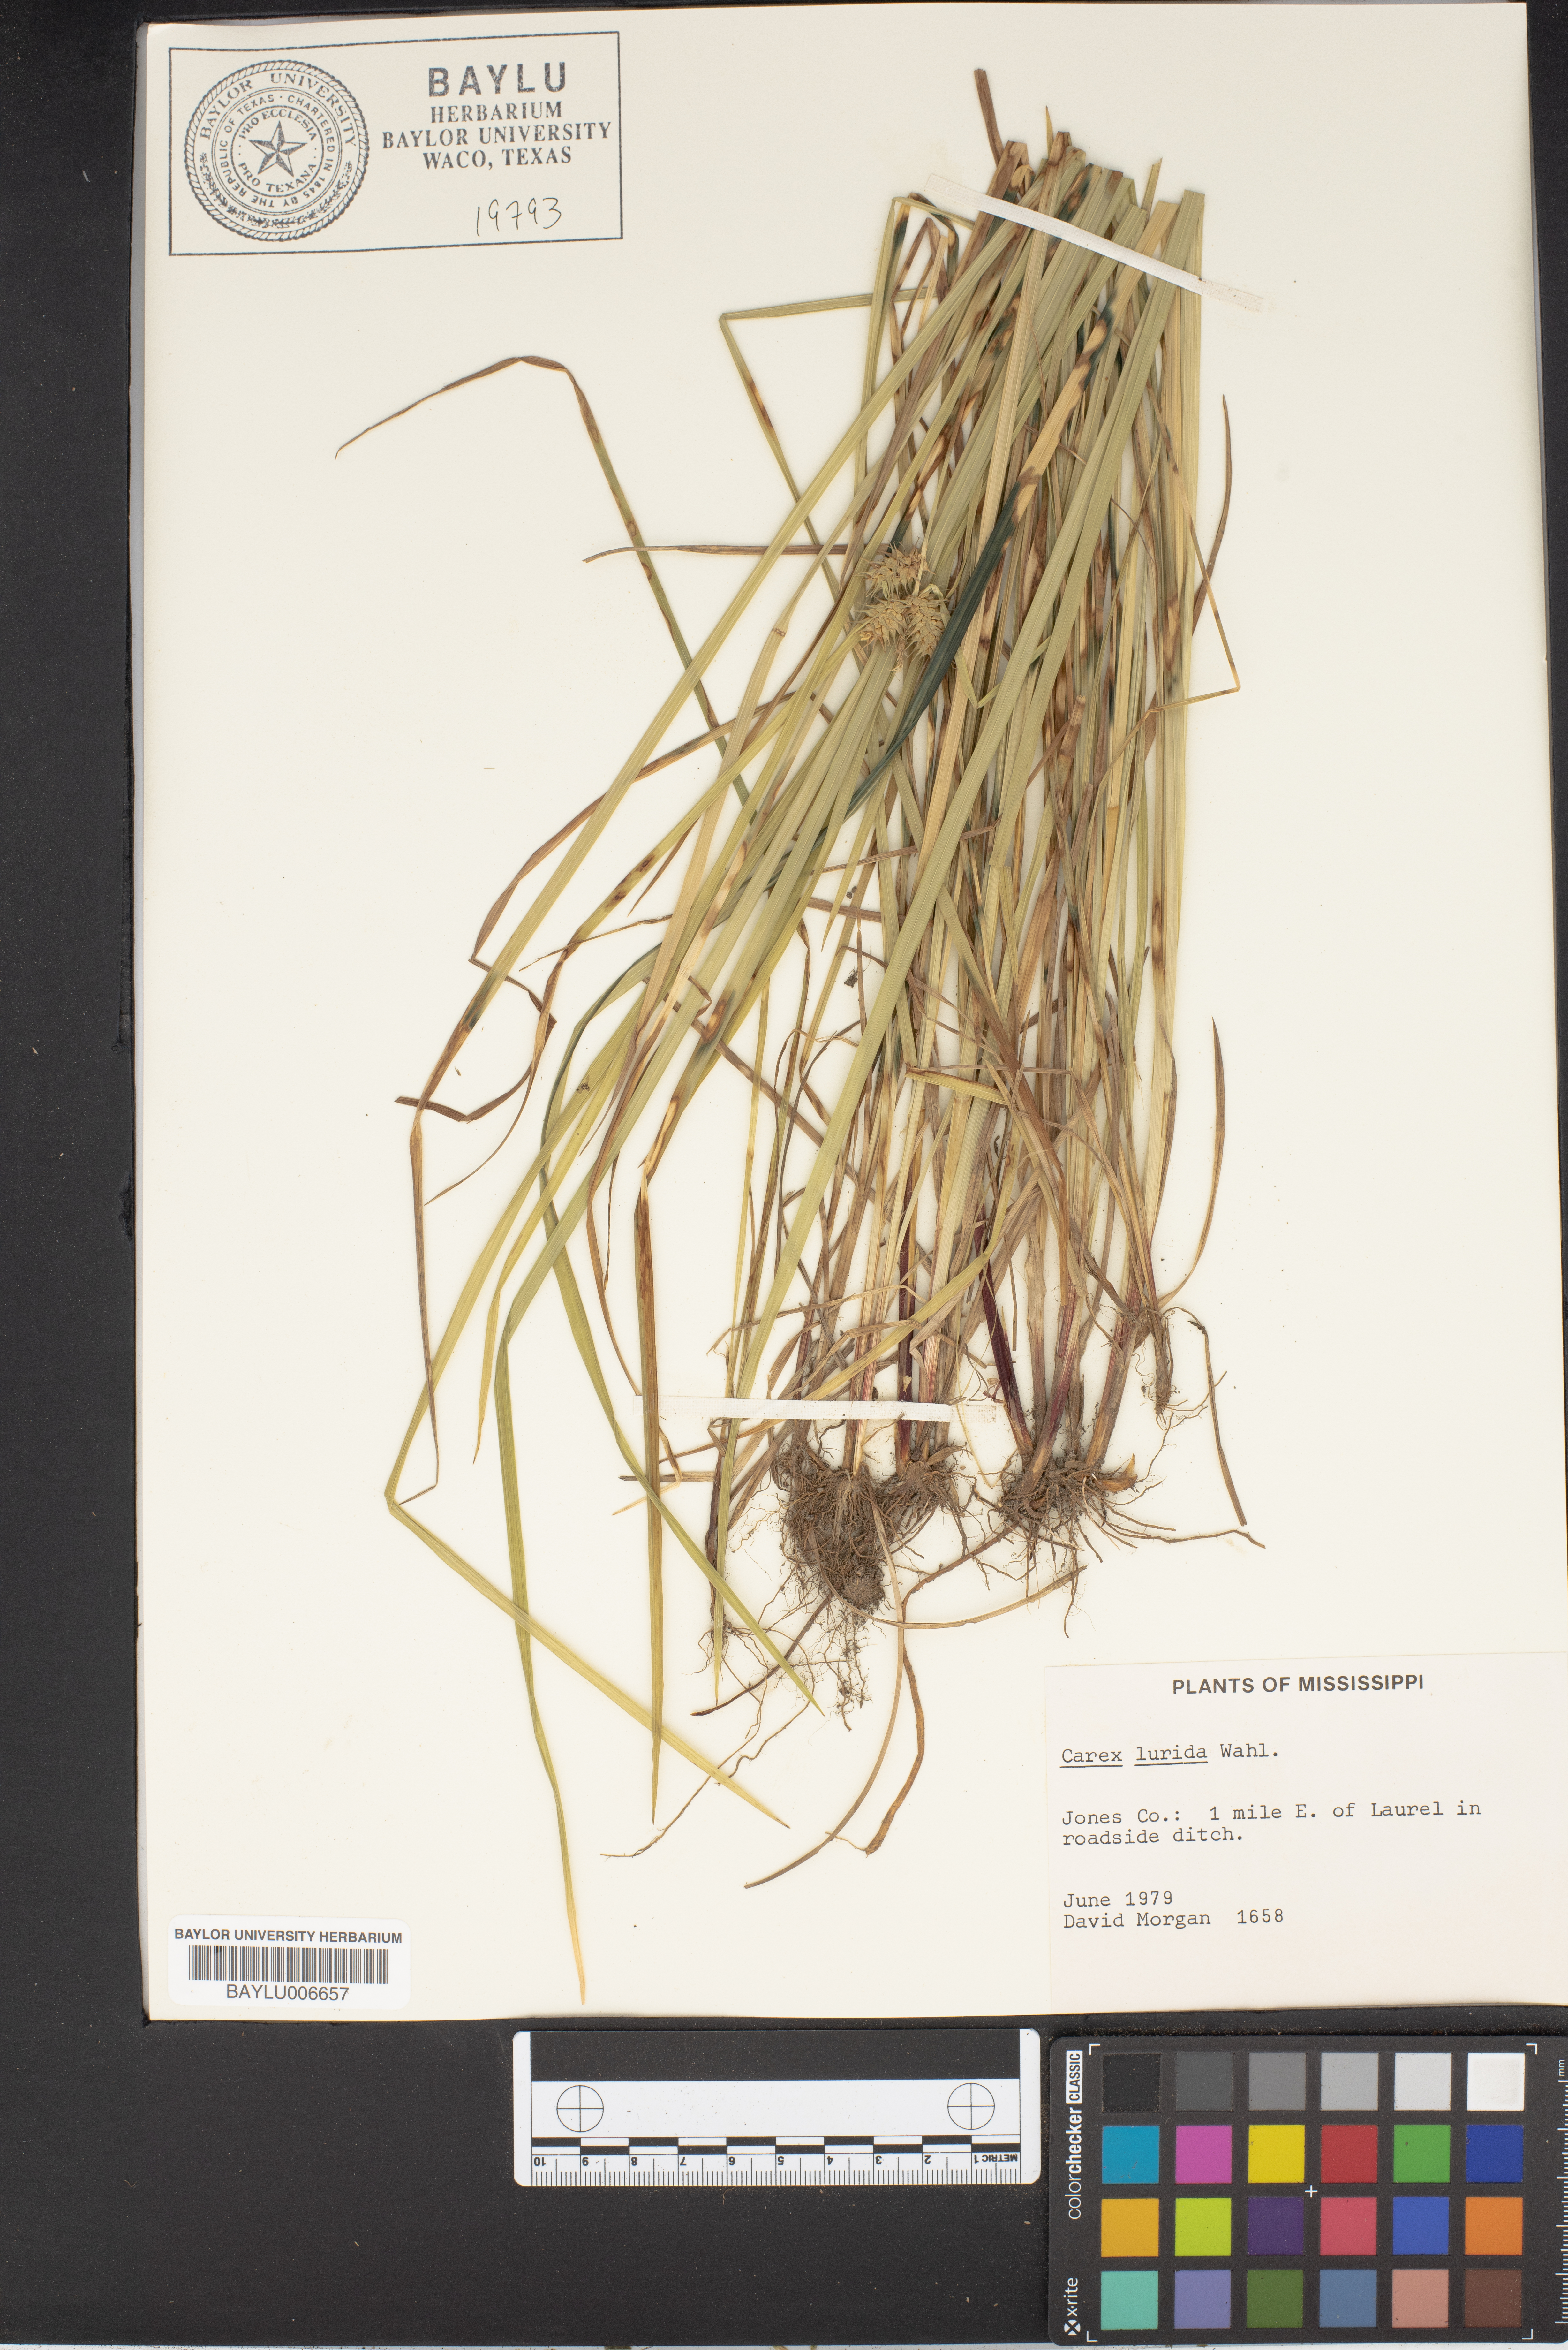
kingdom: Plantae
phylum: Tracheophyta
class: Liliopsida
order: Poales
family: Cyperaceae
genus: Carex
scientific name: Carex lurida
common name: Sallow sedge
